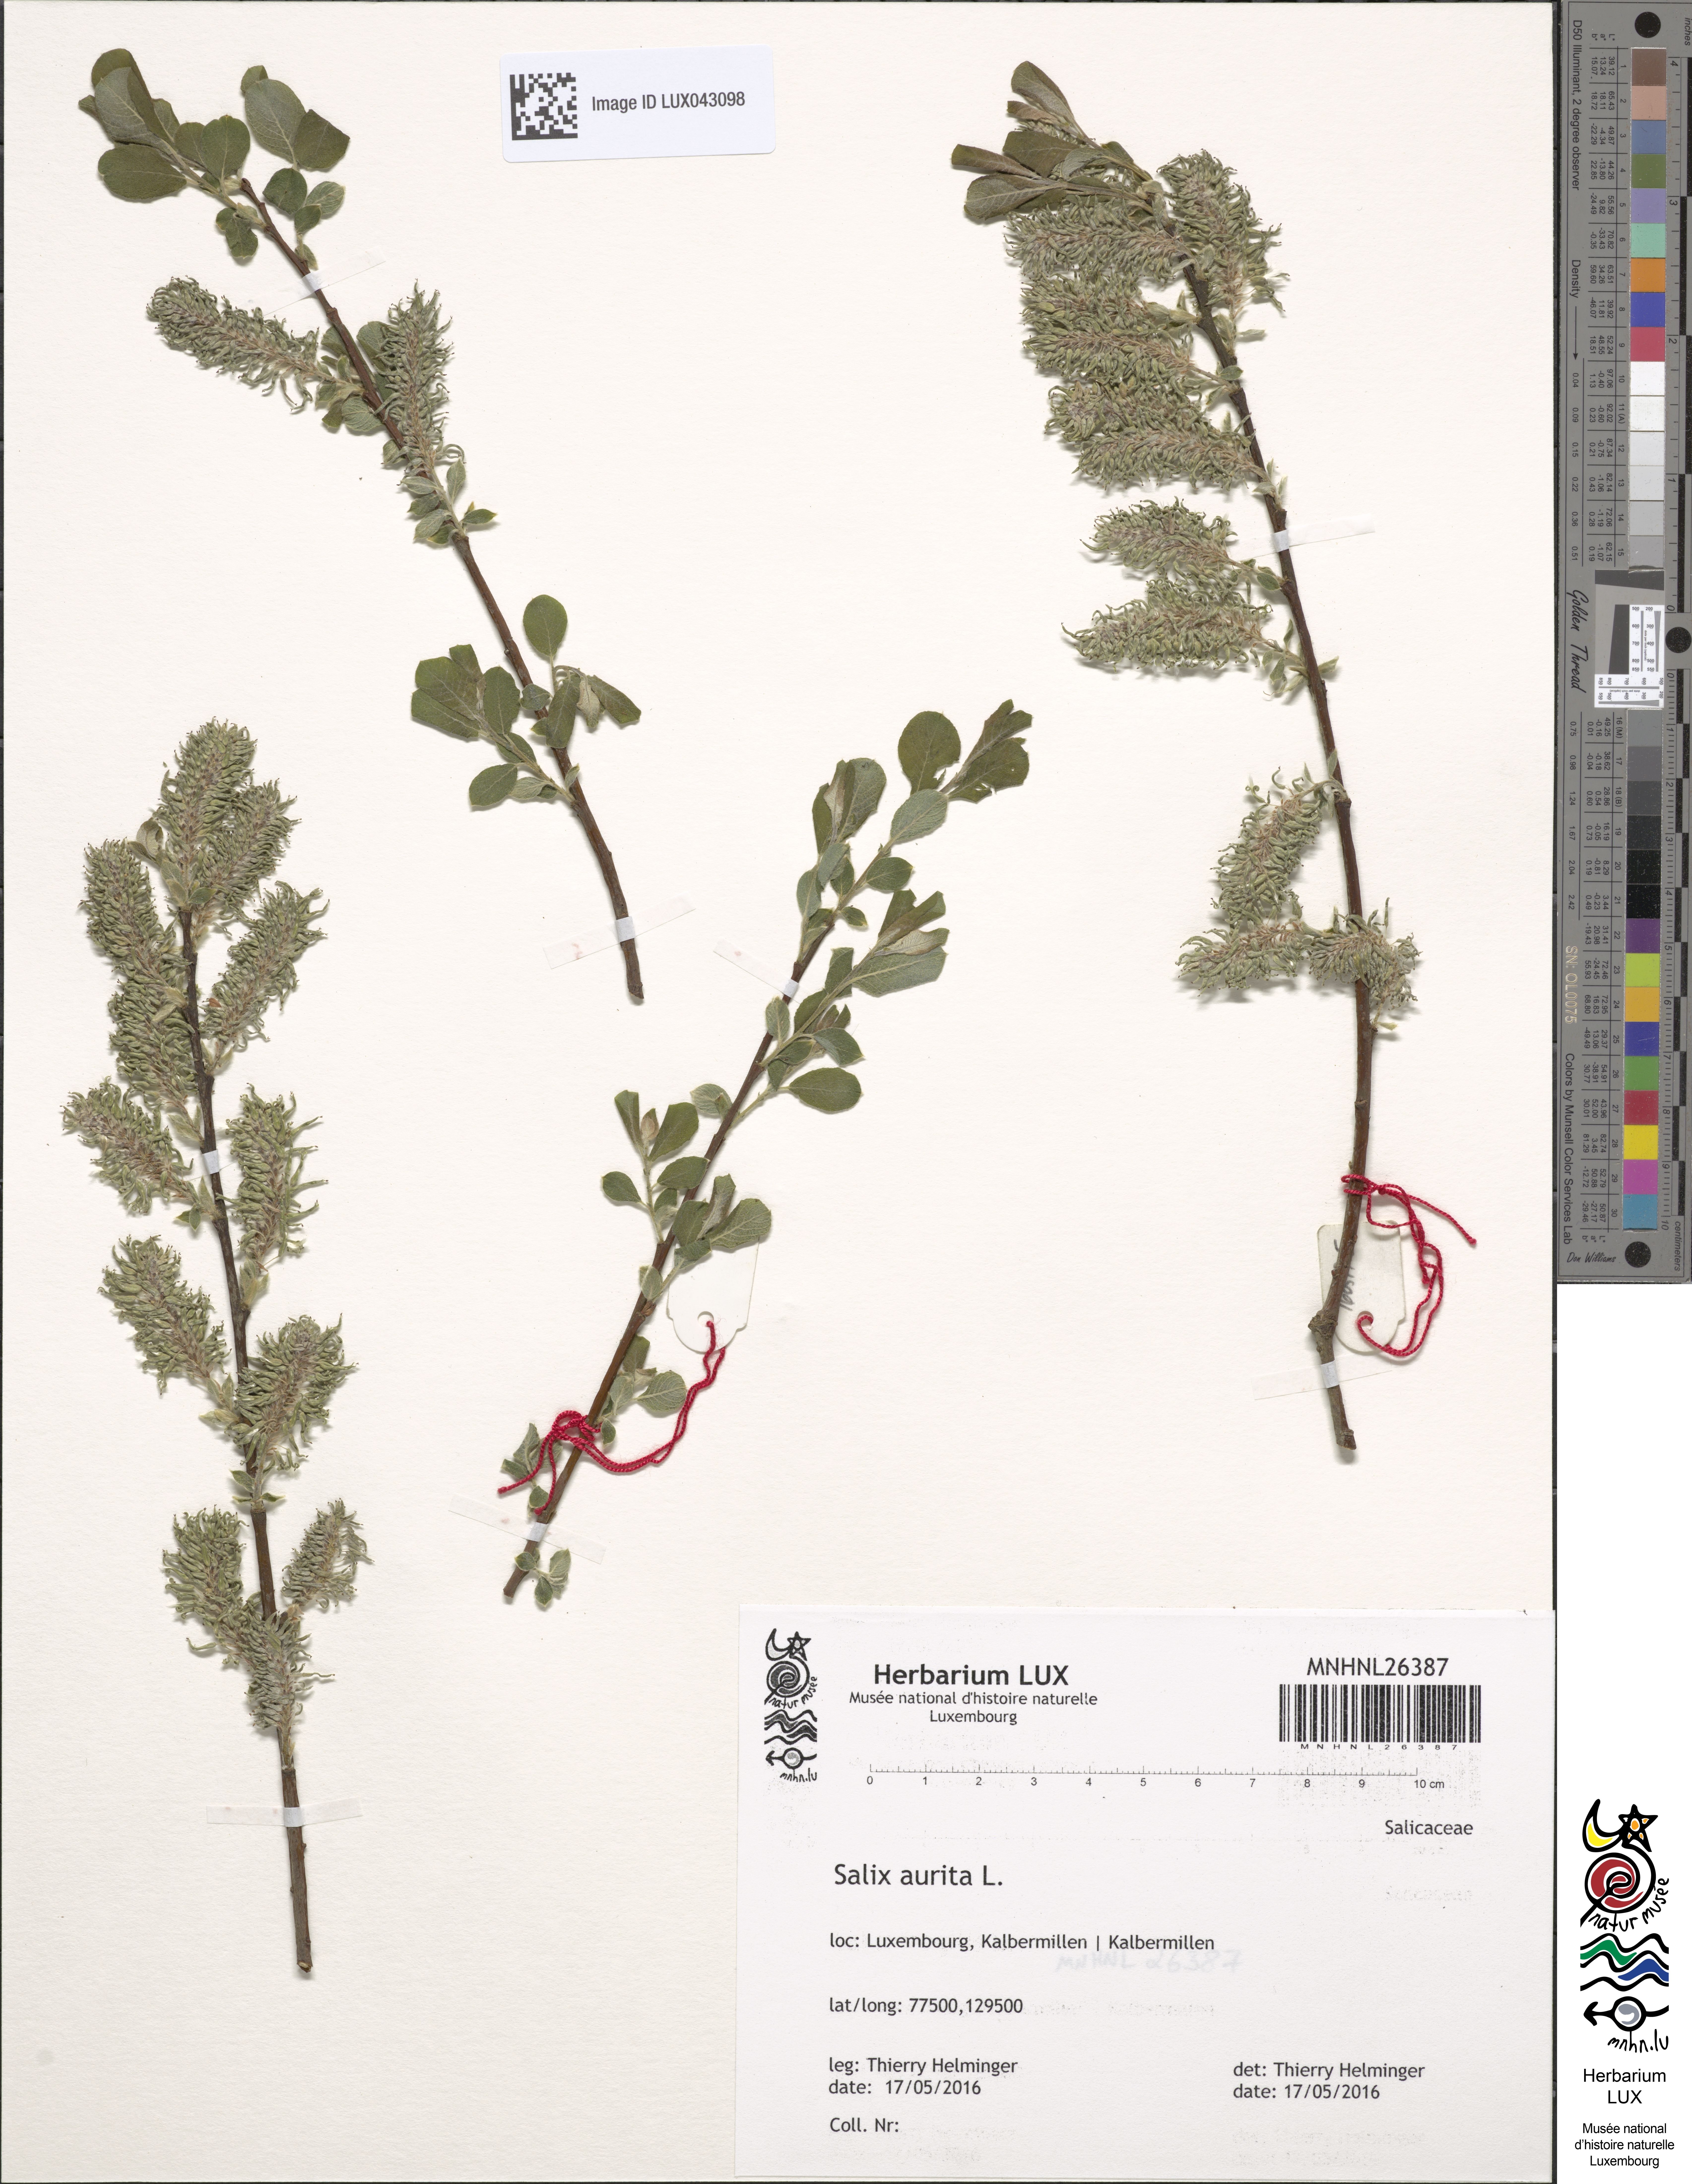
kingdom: Plantae
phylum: Tracheophyta
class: Magnoliopsida
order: Malpighiales
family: Salicaceae
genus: Salix
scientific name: Salix aurita
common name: Eared willow
